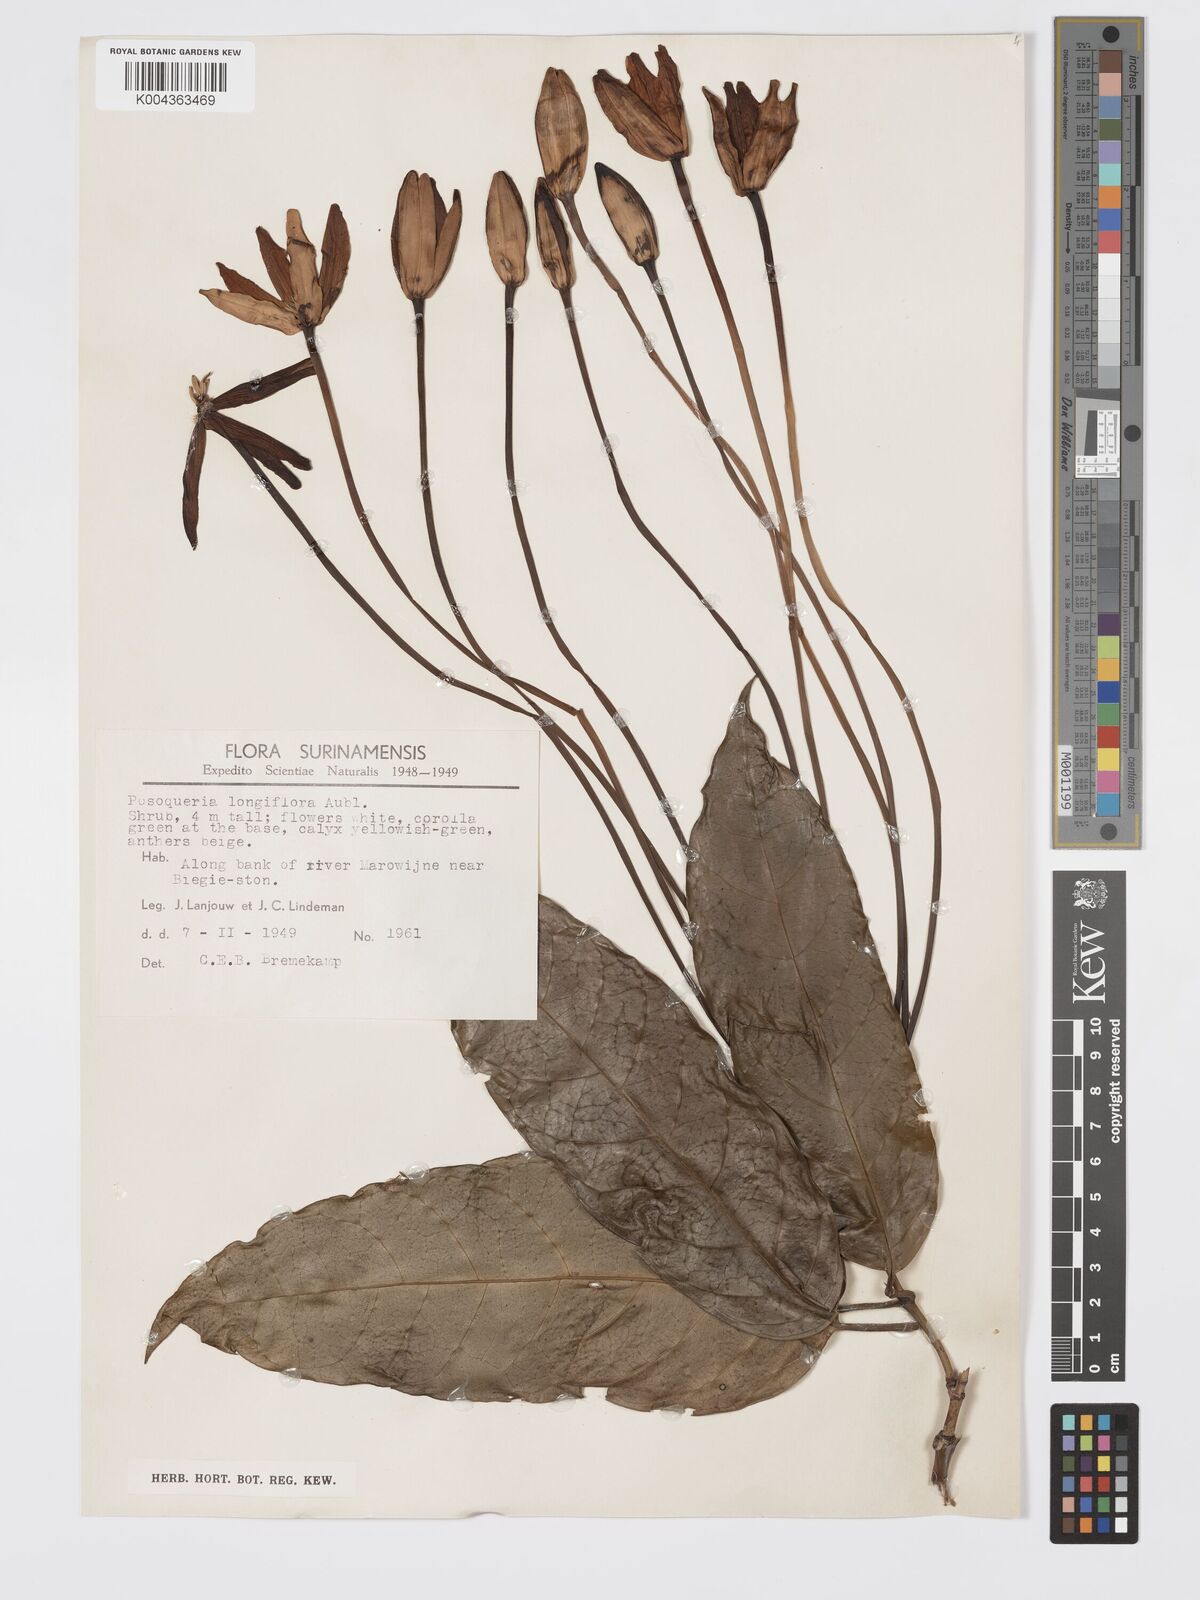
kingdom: Plantae
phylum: Tracheophyta
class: Magnoliopsida
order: Gentianales
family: Rubiaceae
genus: Posoqueria
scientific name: Posoqueria
